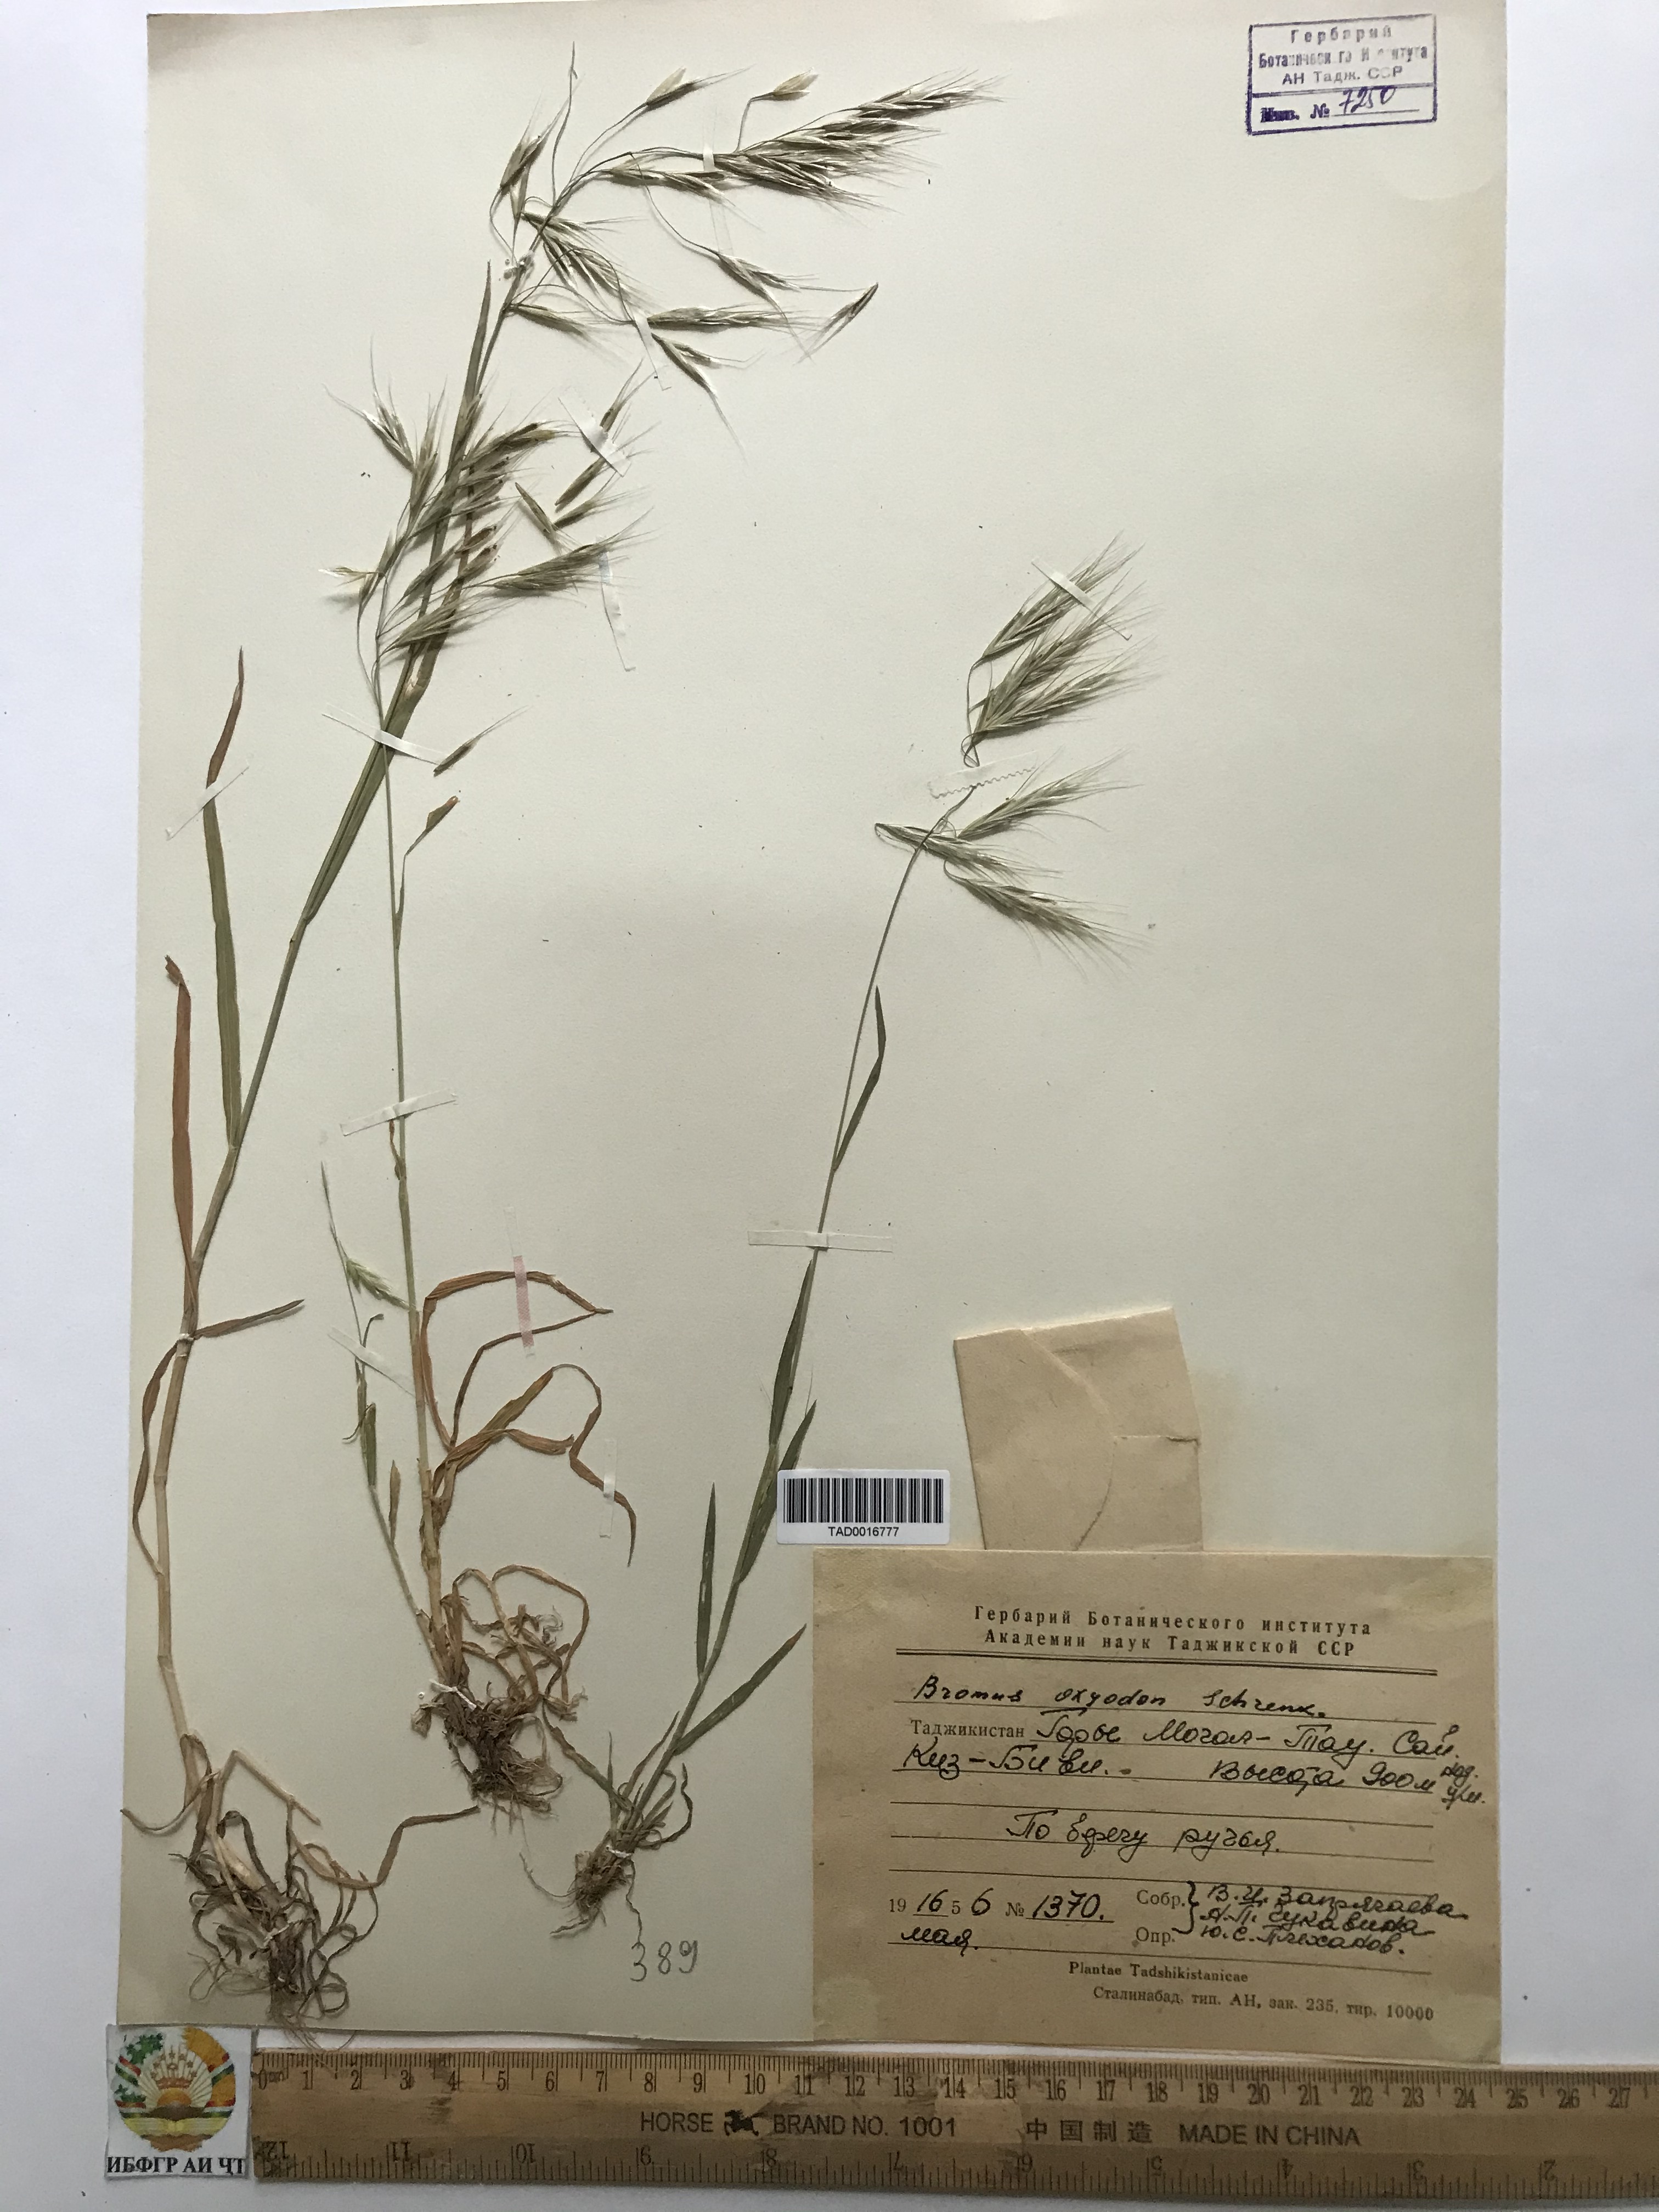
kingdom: Plantae
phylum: Tracheophyta
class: Liliopsida
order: Poales
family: Poaceae
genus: Bromus
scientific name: Bromus oxyodon
